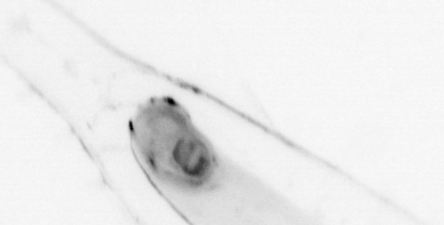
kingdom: Animalia
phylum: Chaetognatha
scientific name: Chaetognatha
